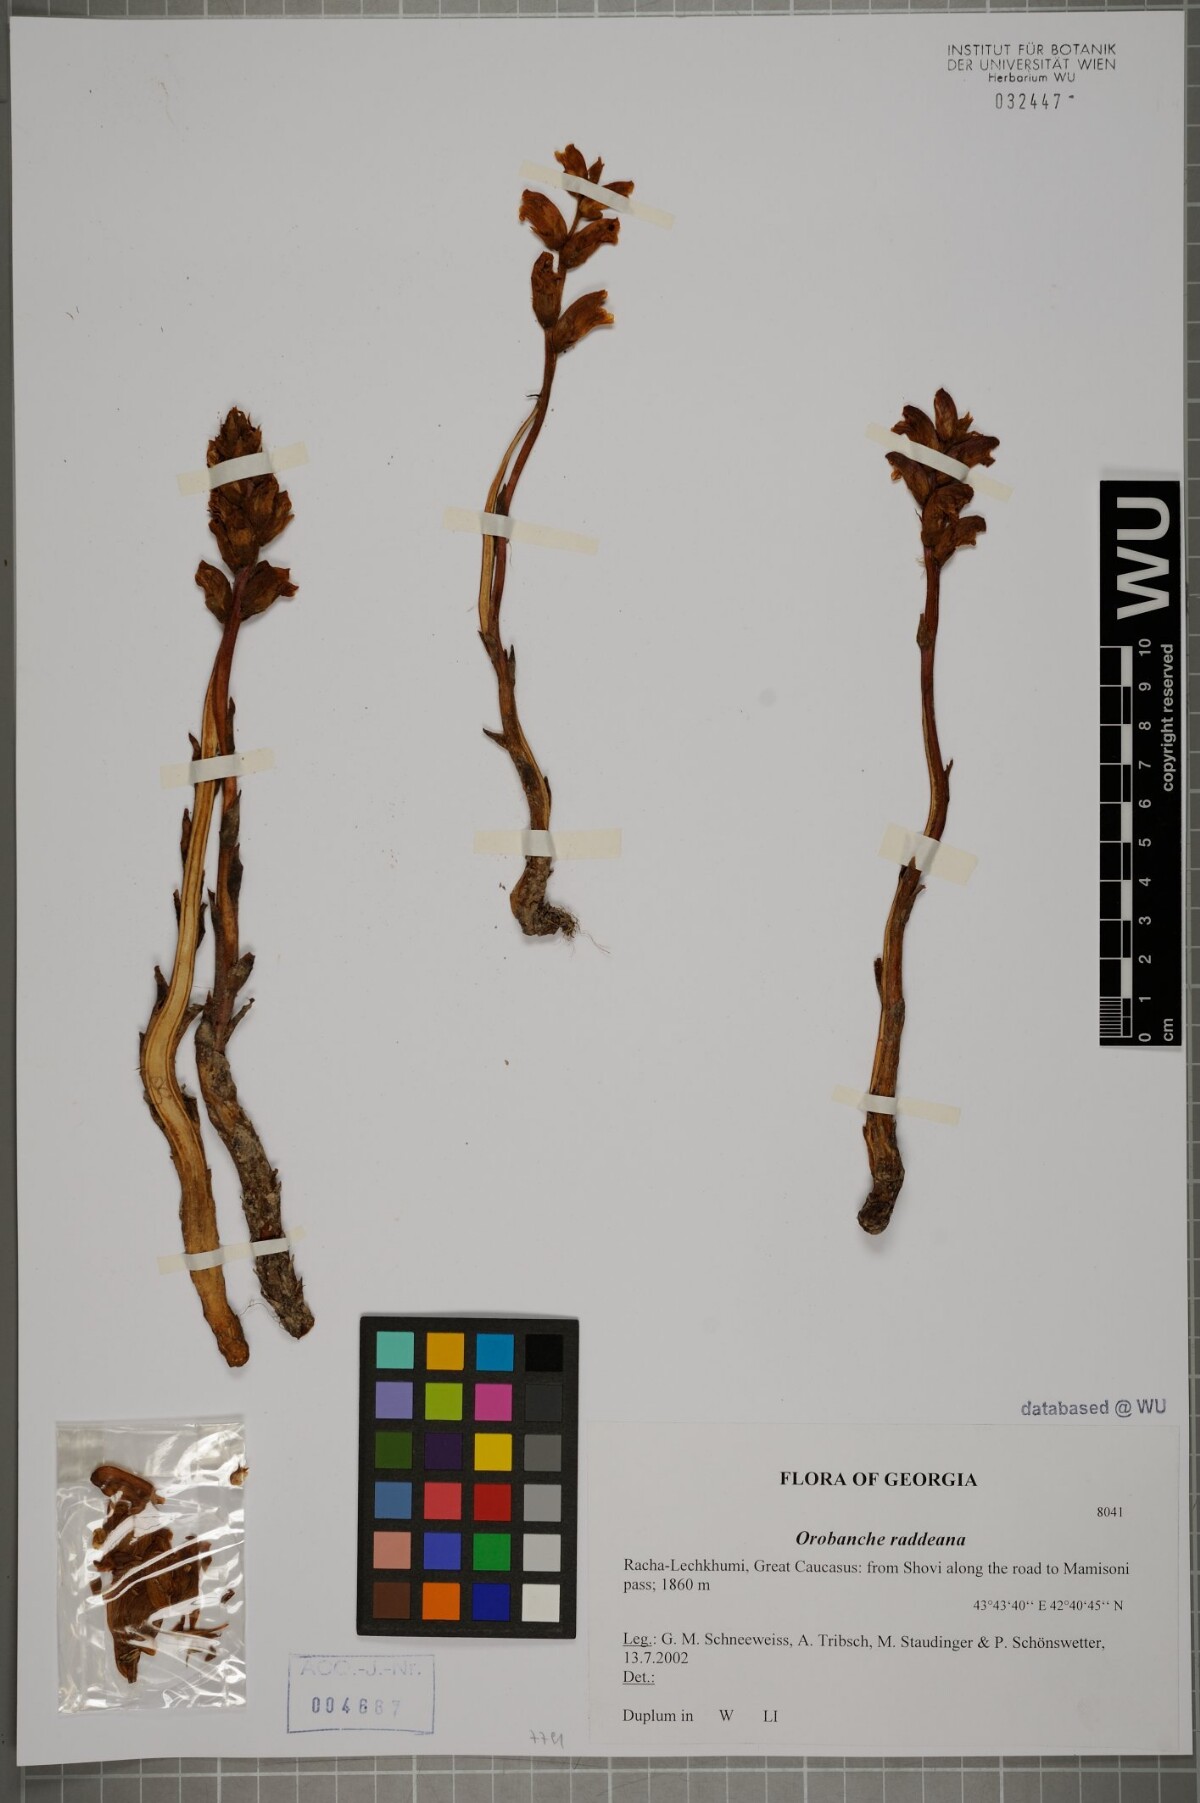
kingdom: Plantae
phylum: Tracheophyta
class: Magnoliopsida
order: Lamiales
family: Orobanchaceae
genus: Orobanche
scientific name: Orobanche alba
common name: Thyme broomrape
